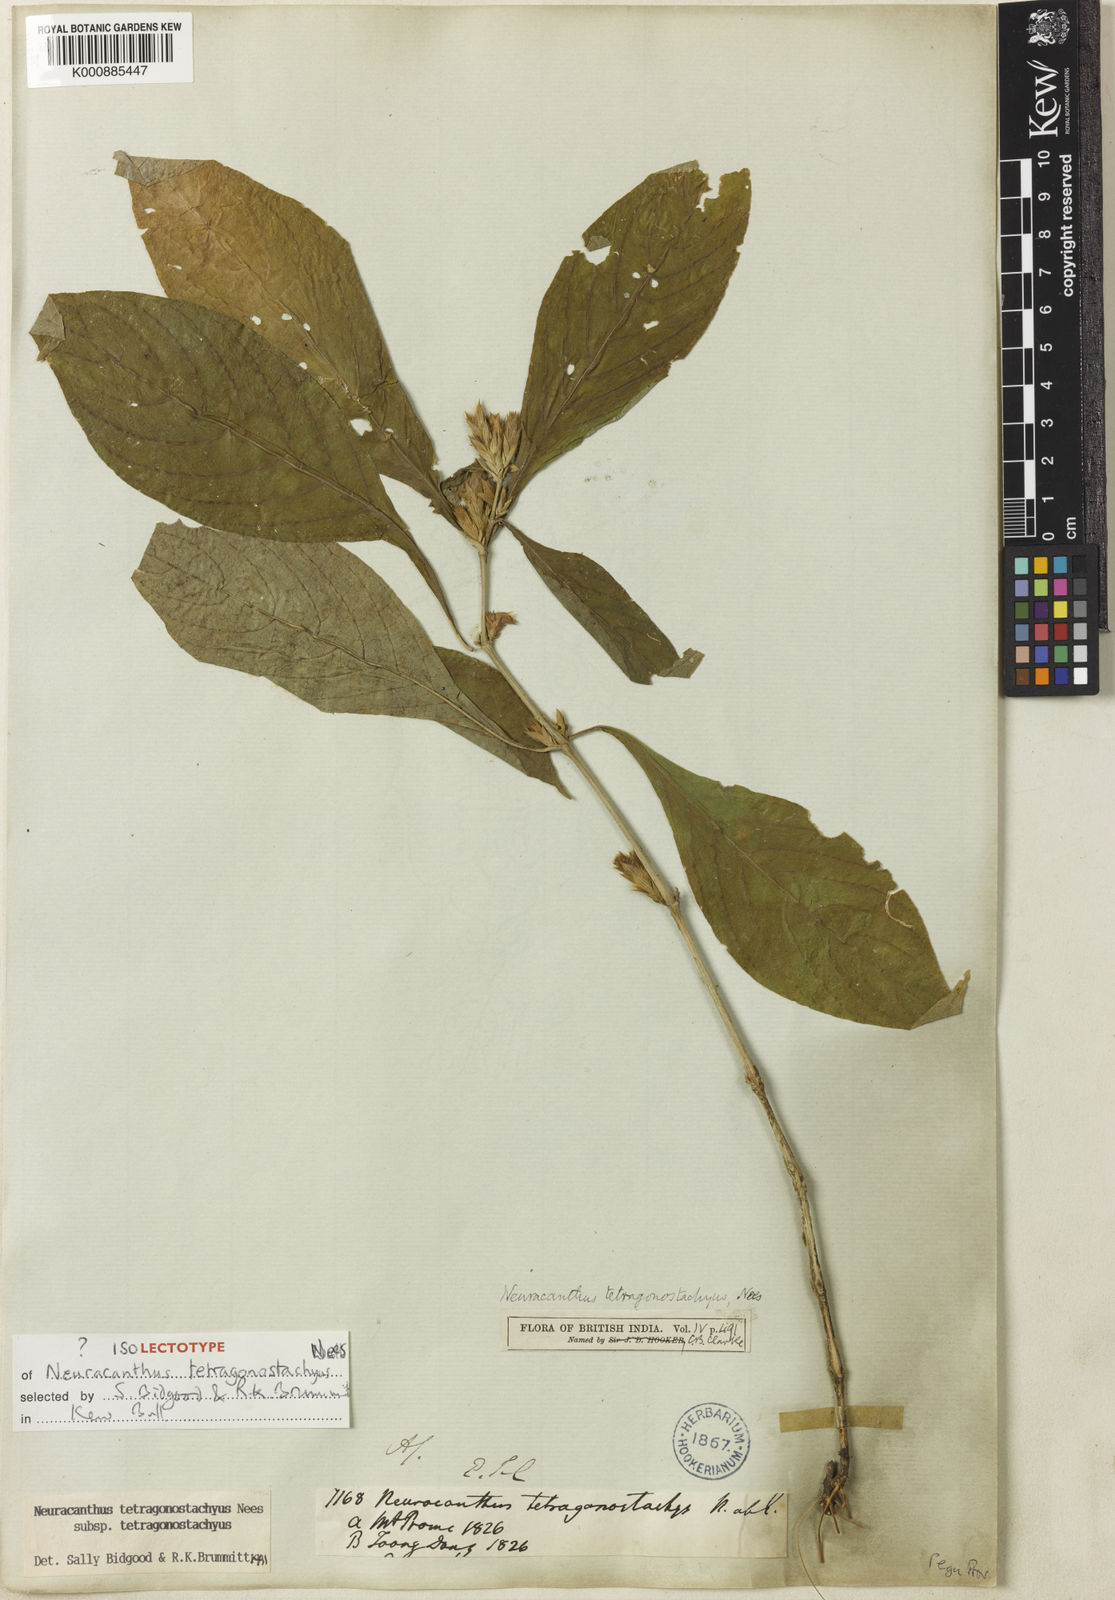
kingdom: Plantae
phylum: Tracheophyta
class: Magnoliopsida
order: Lamiales
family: Acanthaceae
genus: Neuracanthus
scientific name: Neuracanthus tetragonostachyus
